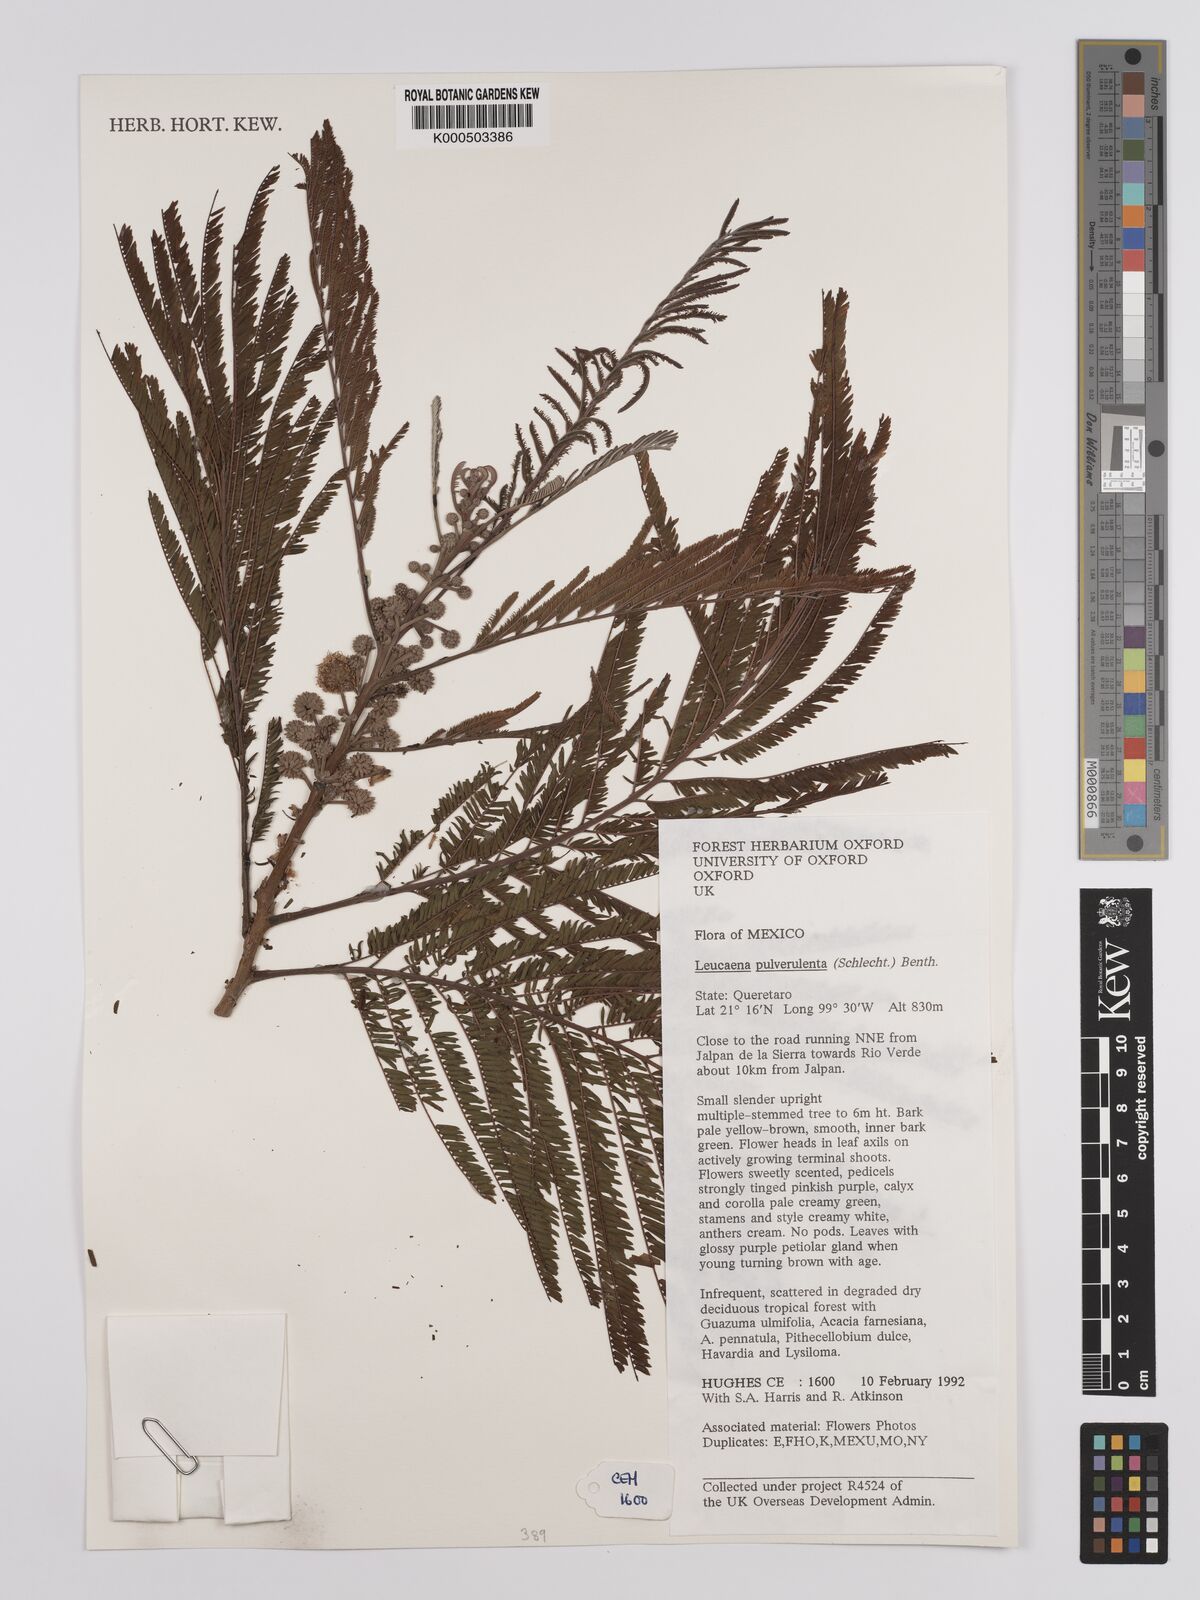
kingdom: Plantae
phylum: Tracheophyta
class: Magnoliopsida
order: Fabales
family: Fabaceae
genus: Leucaena
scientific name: Leucaena pulverulenta
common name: Great leadtree
